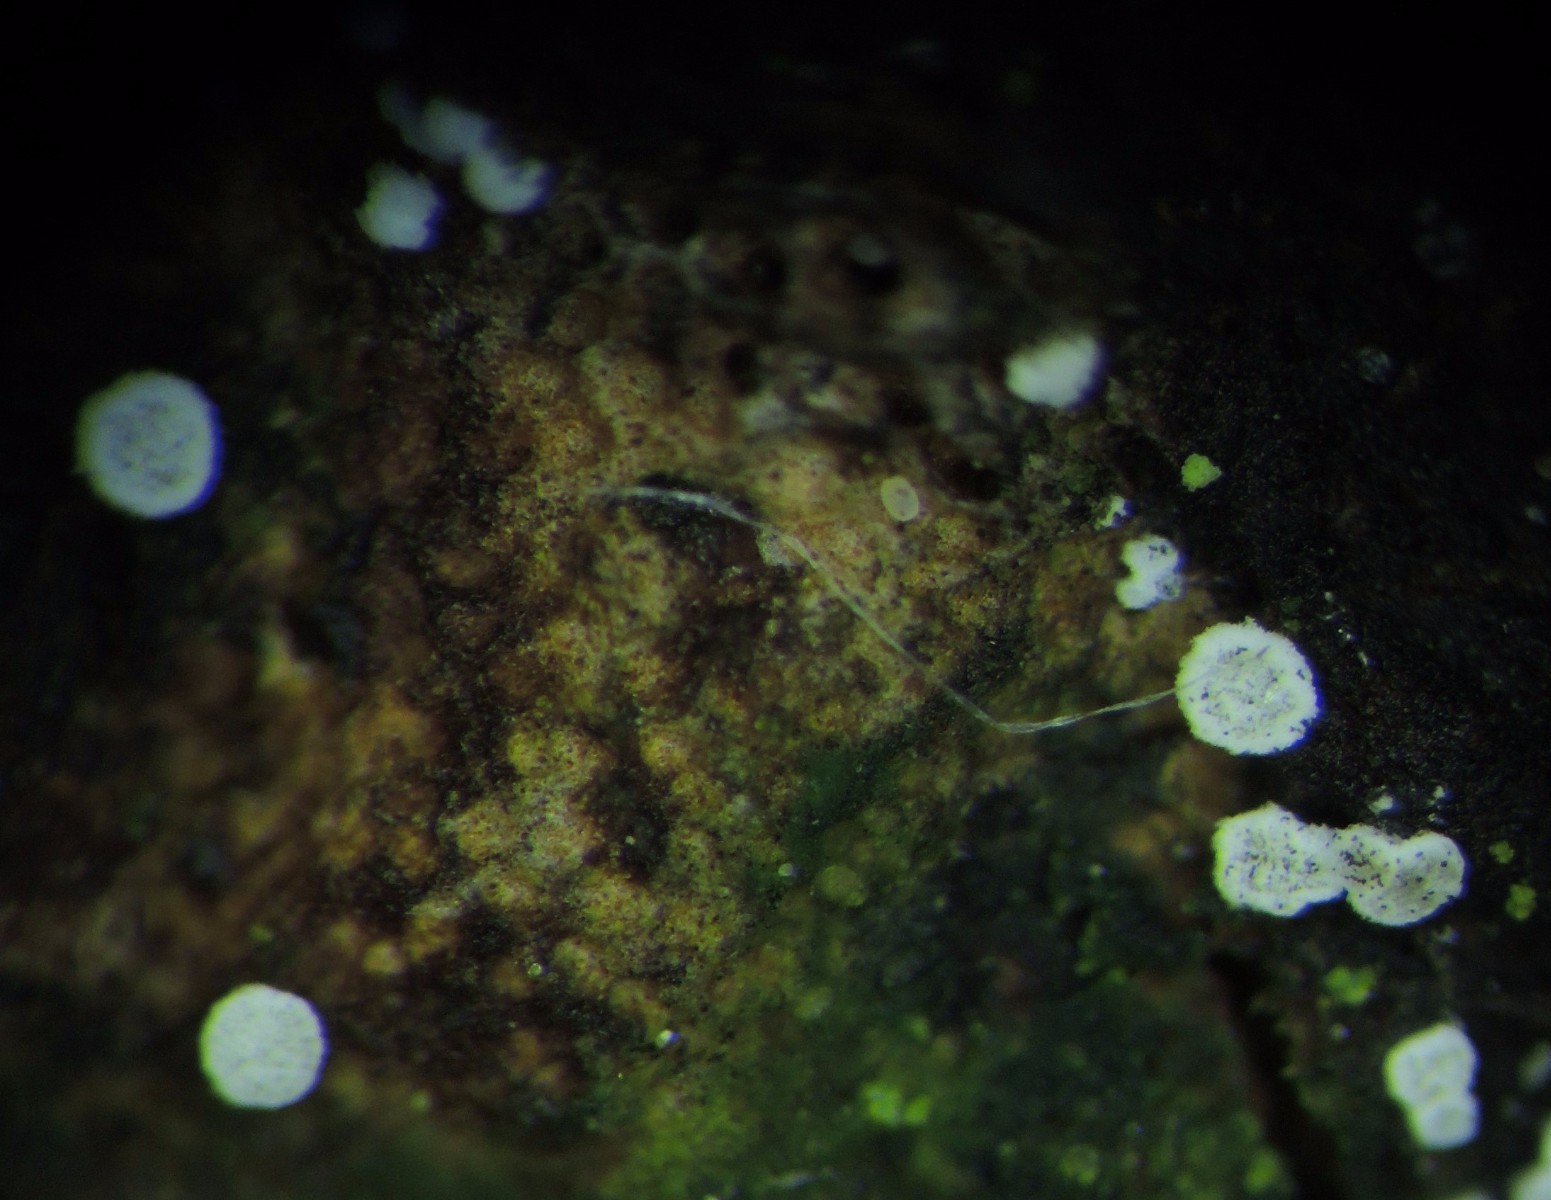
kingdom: Fungi
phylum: Ascomycota
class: Leotiomycetes
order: Helotiales
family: Hyaloscyphaceae
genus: Polydesmia
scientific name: Polydesmia pruinosa
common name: dunskive
